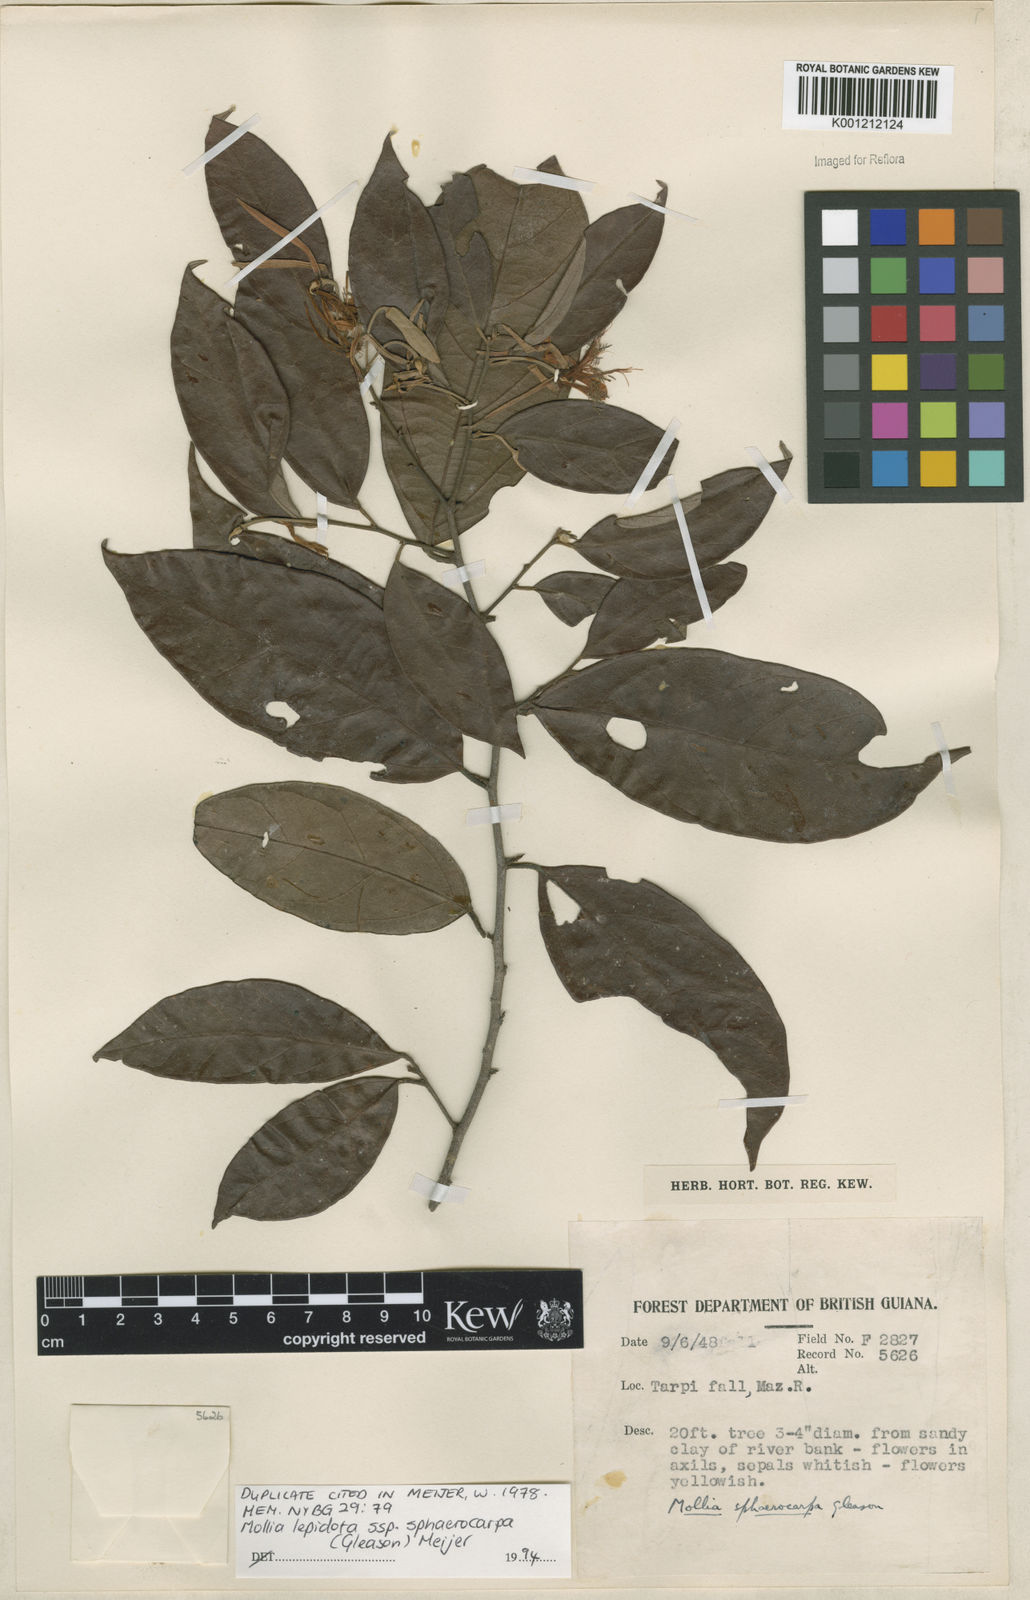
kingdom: Plantae
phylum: Tracheophyta
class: Magnoliopsida
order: Malvales
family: Malvaceae
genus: Mollia
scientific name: Mollia lepidota
